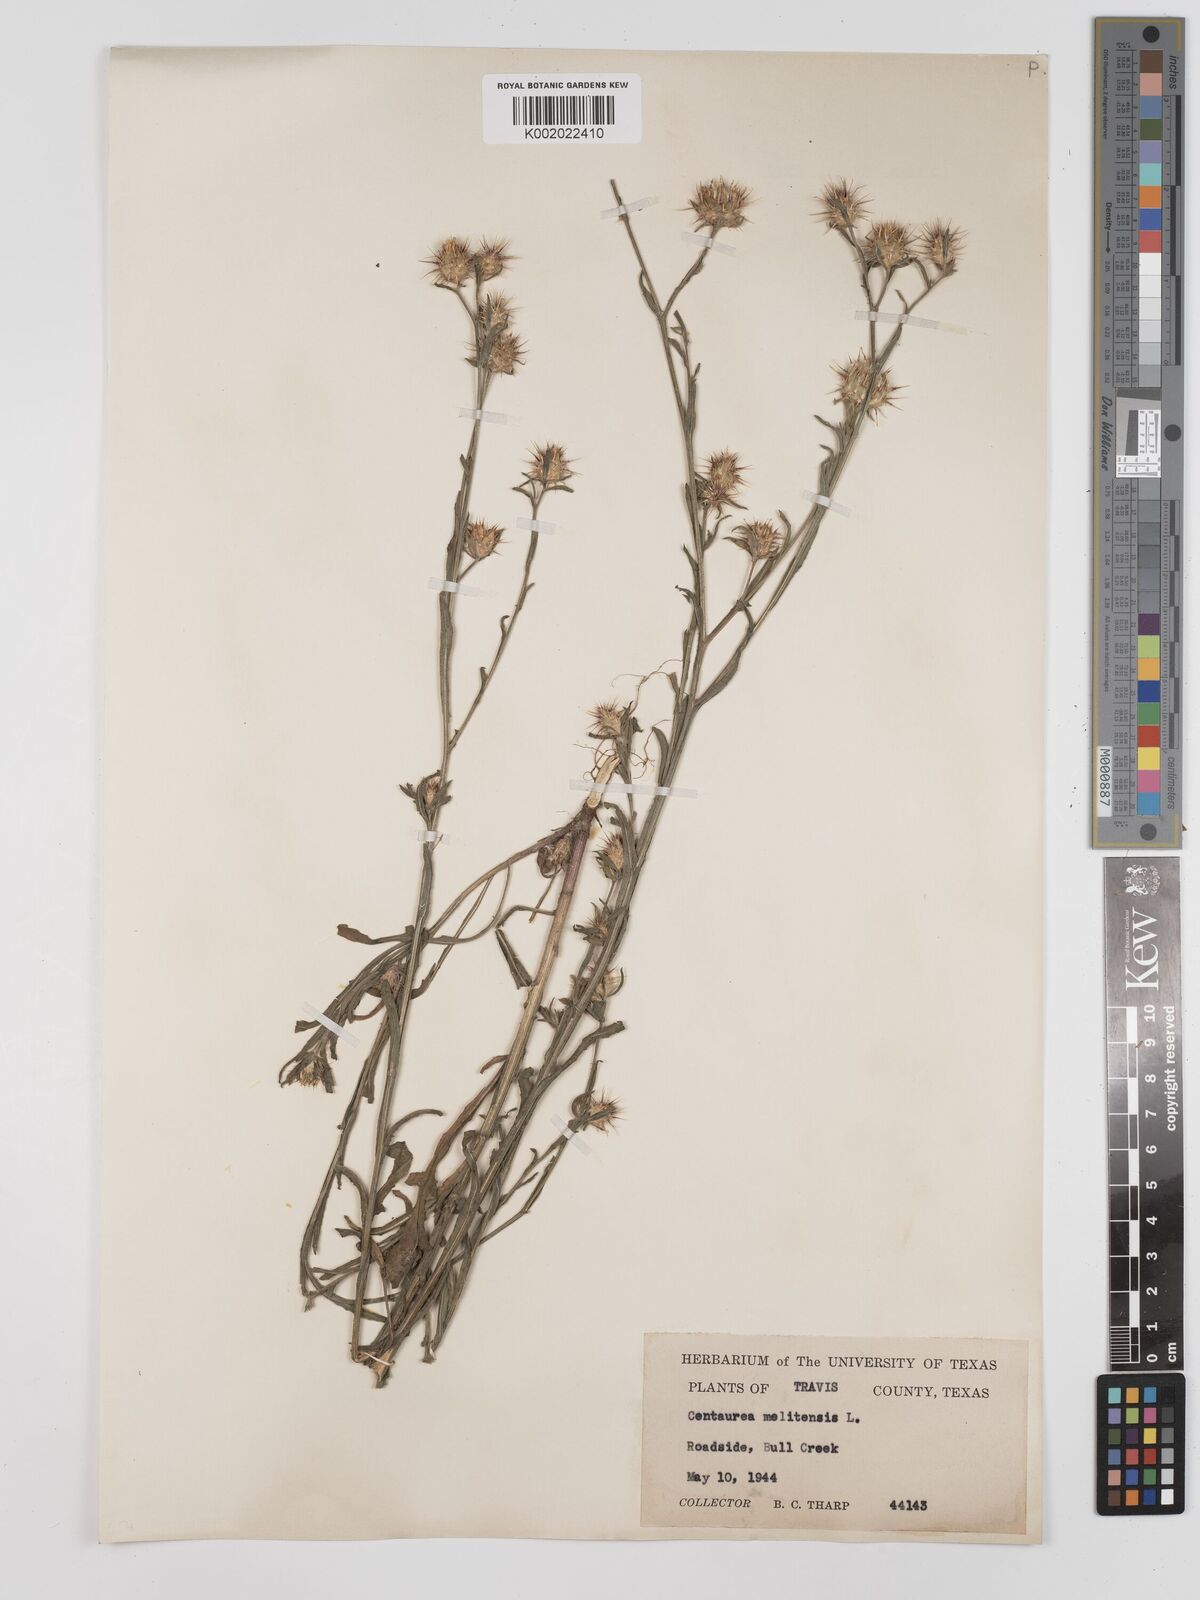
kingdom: Plantae
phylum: Tracheophyta
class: Magnoliopsida
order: Asterales
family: Asteraceae
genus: Centaurea
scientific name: Centaurea melitensis
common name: Maltese star-thistle
